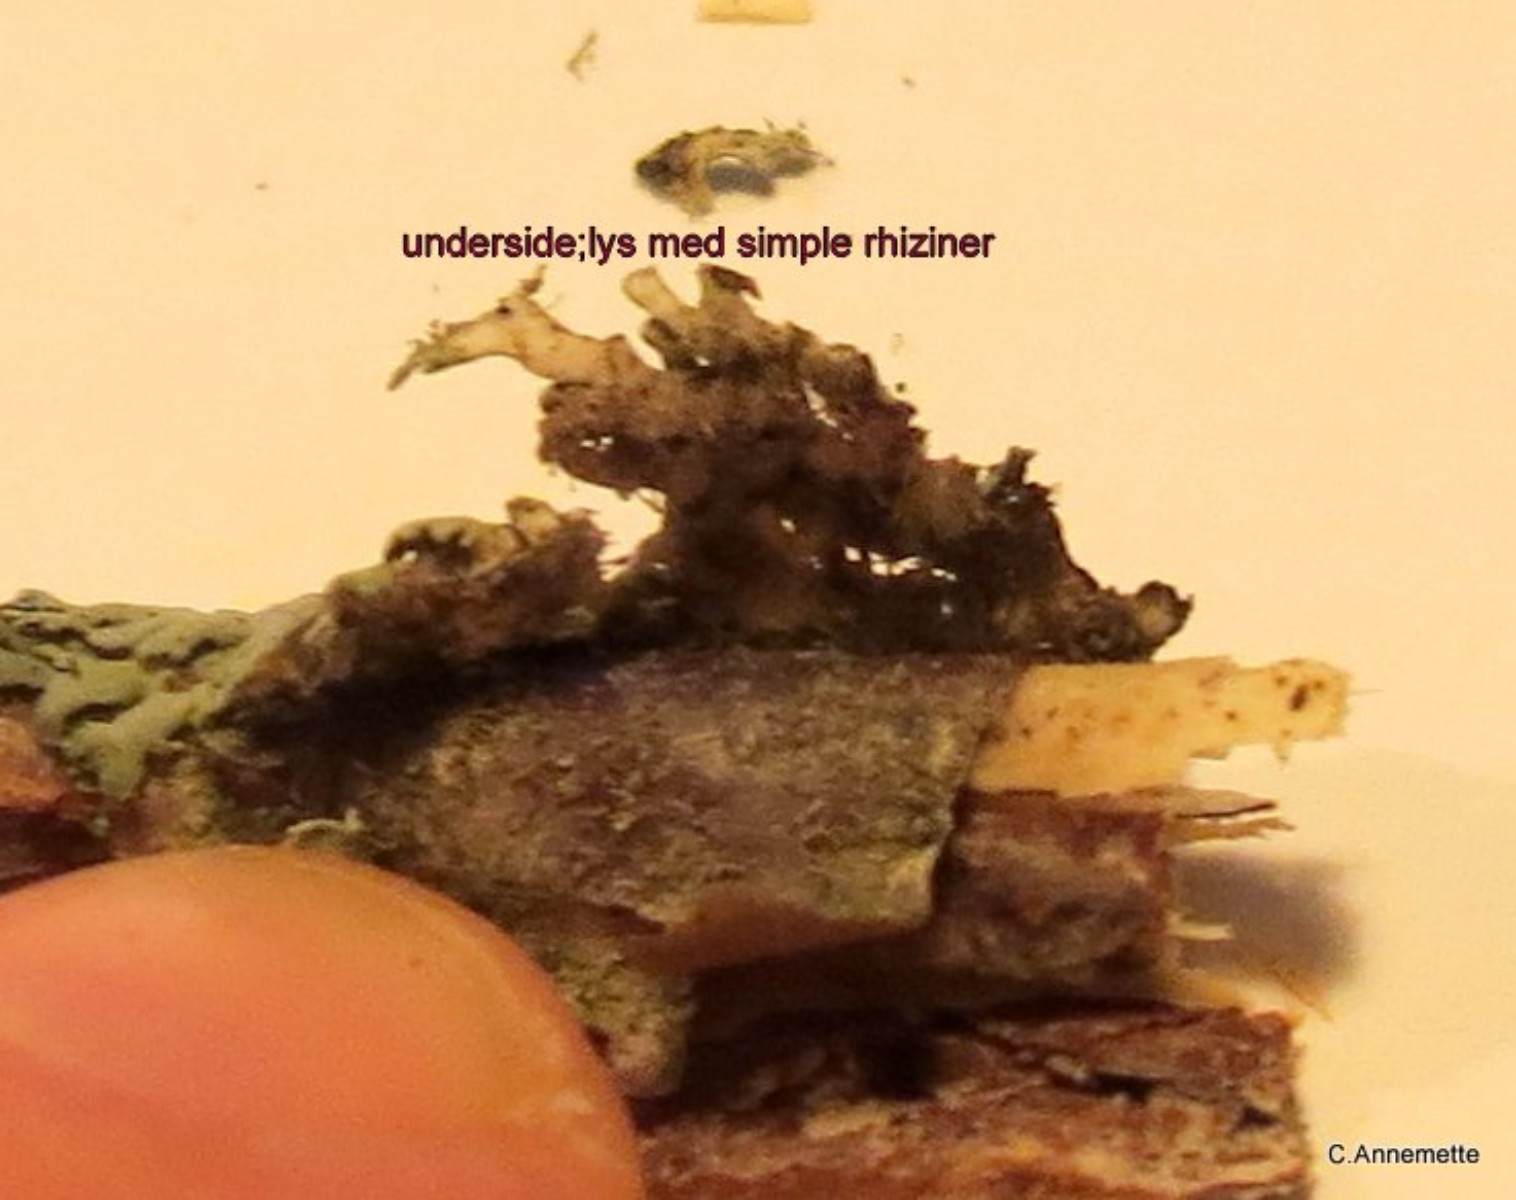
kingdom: Fungi
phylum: Ascomycota
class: Lecanoromycetes
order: Caliciales
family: Physciaceae
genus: Physcia
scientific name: Physcia aipolia
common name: hvidprikket rosetlav
